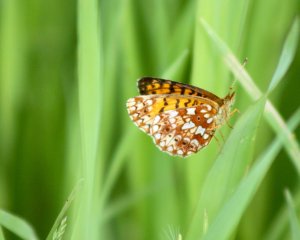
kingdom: Animalia
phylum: Arthropoda
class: Insecta
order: Lepidoptera
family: Nymphalidae
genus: Boloria
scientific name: Boloria selene
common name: Silver-bordered Fritillary
